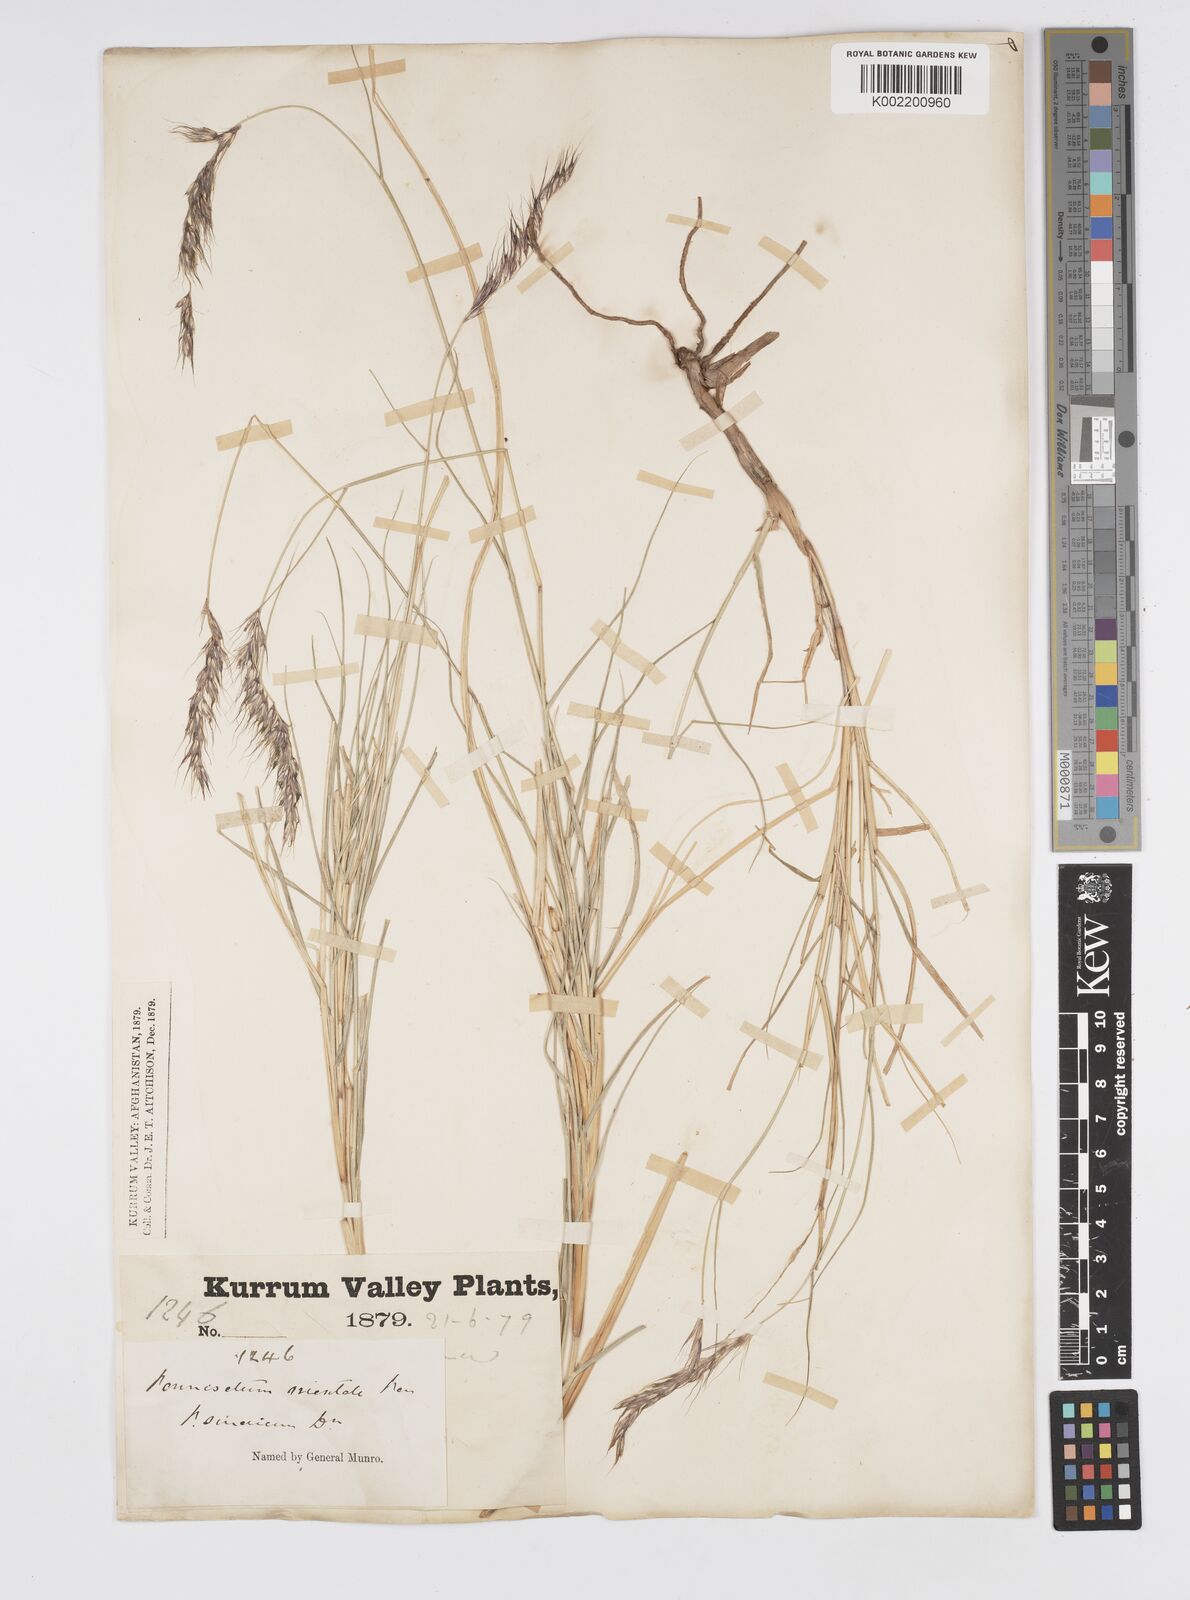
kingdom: Plantae
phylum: Tracheophyta
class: Liliopsida
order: Poales
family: Poaceae
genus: Cenchrus
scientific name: Cenchrus orientalis
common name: Oriental fountain grass
